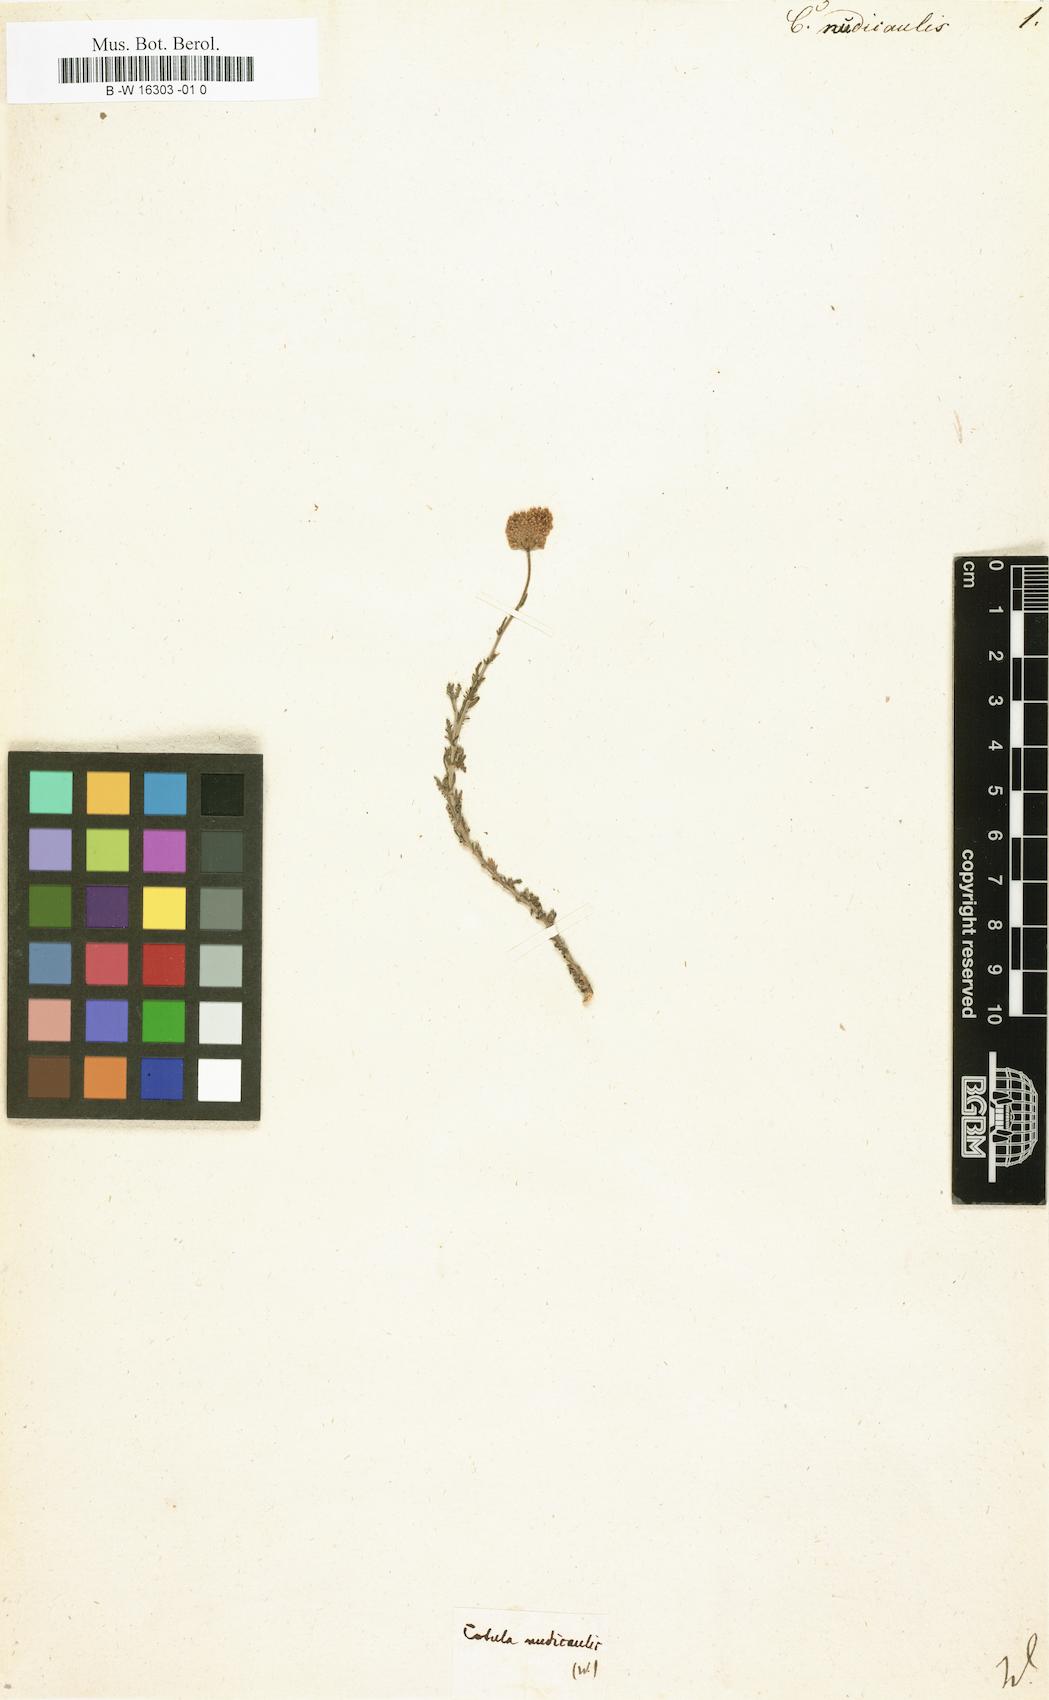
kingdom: Plantae
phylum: Tracheophyta
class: Magnoliopsida
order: Asterales
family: Asteraceae
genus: Cotula
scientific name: Cotula nudicaulis
